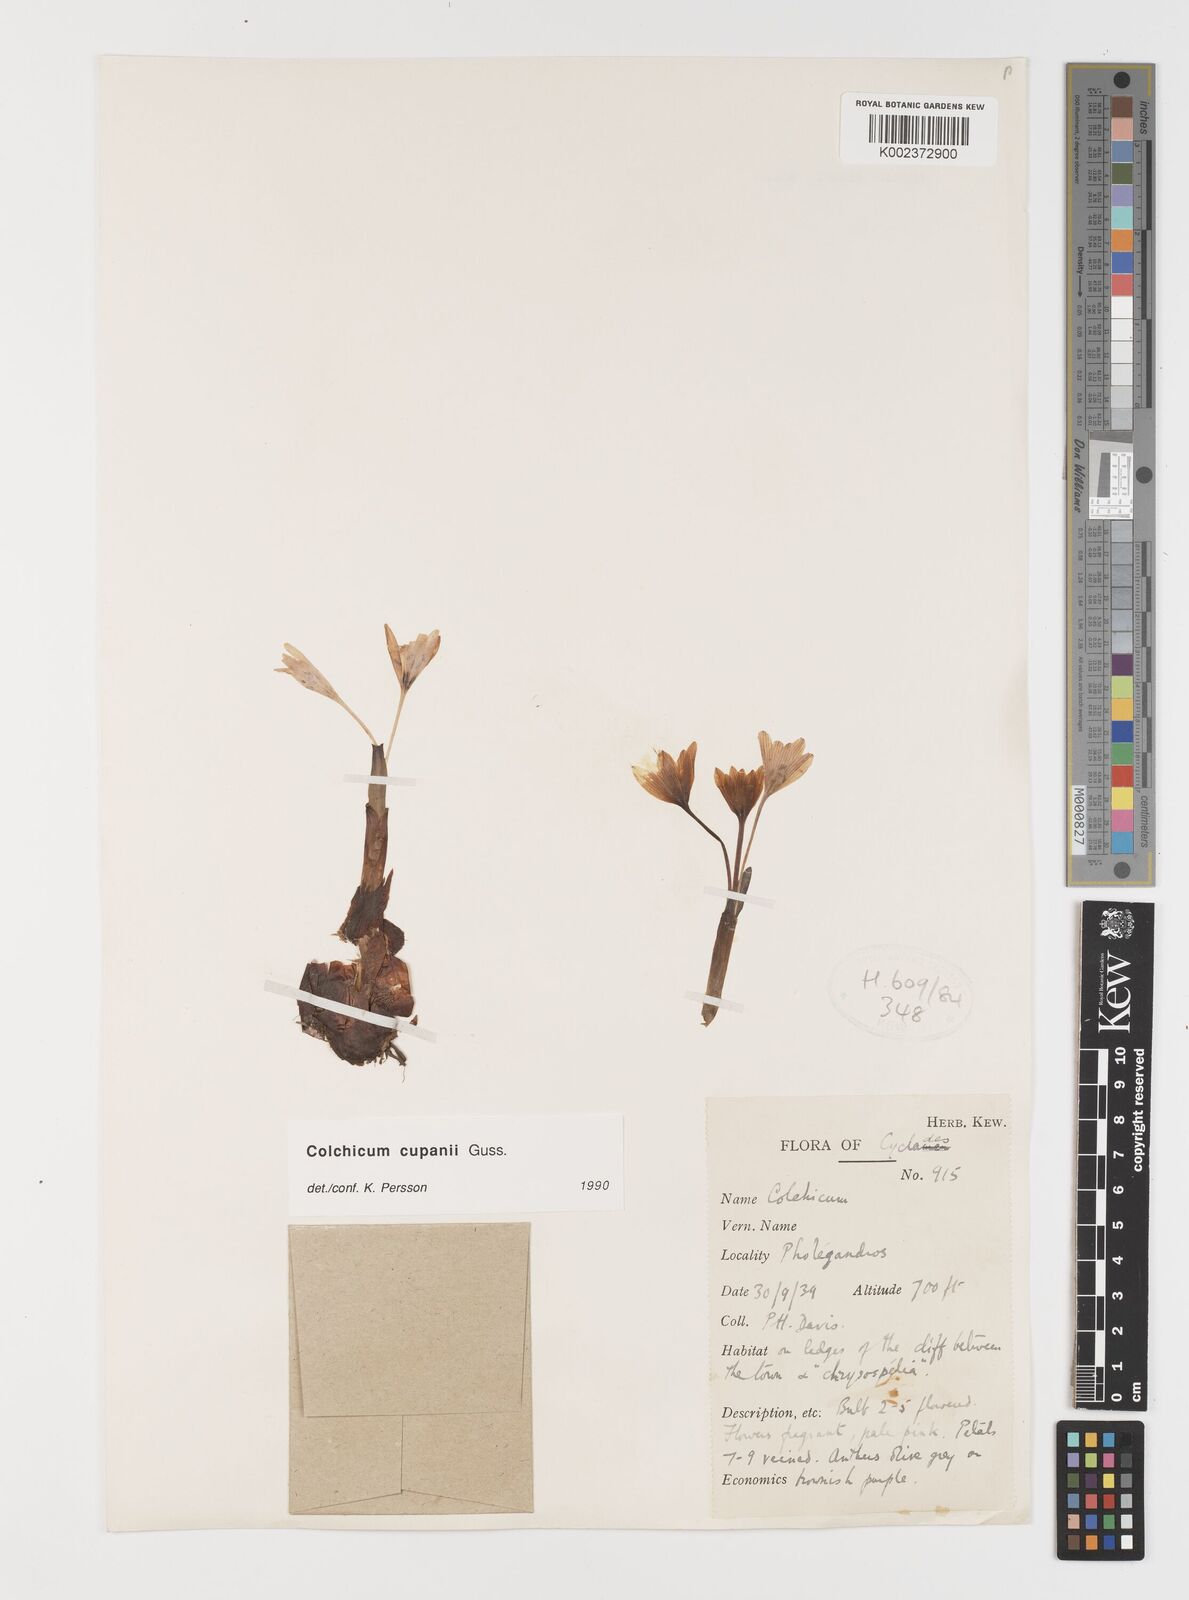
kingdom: Plantae
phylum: Tracheophyta
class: Liliopsida
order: Liliales
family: Colchicaceae
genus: Colchicum
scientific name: Colchicum cupanii
